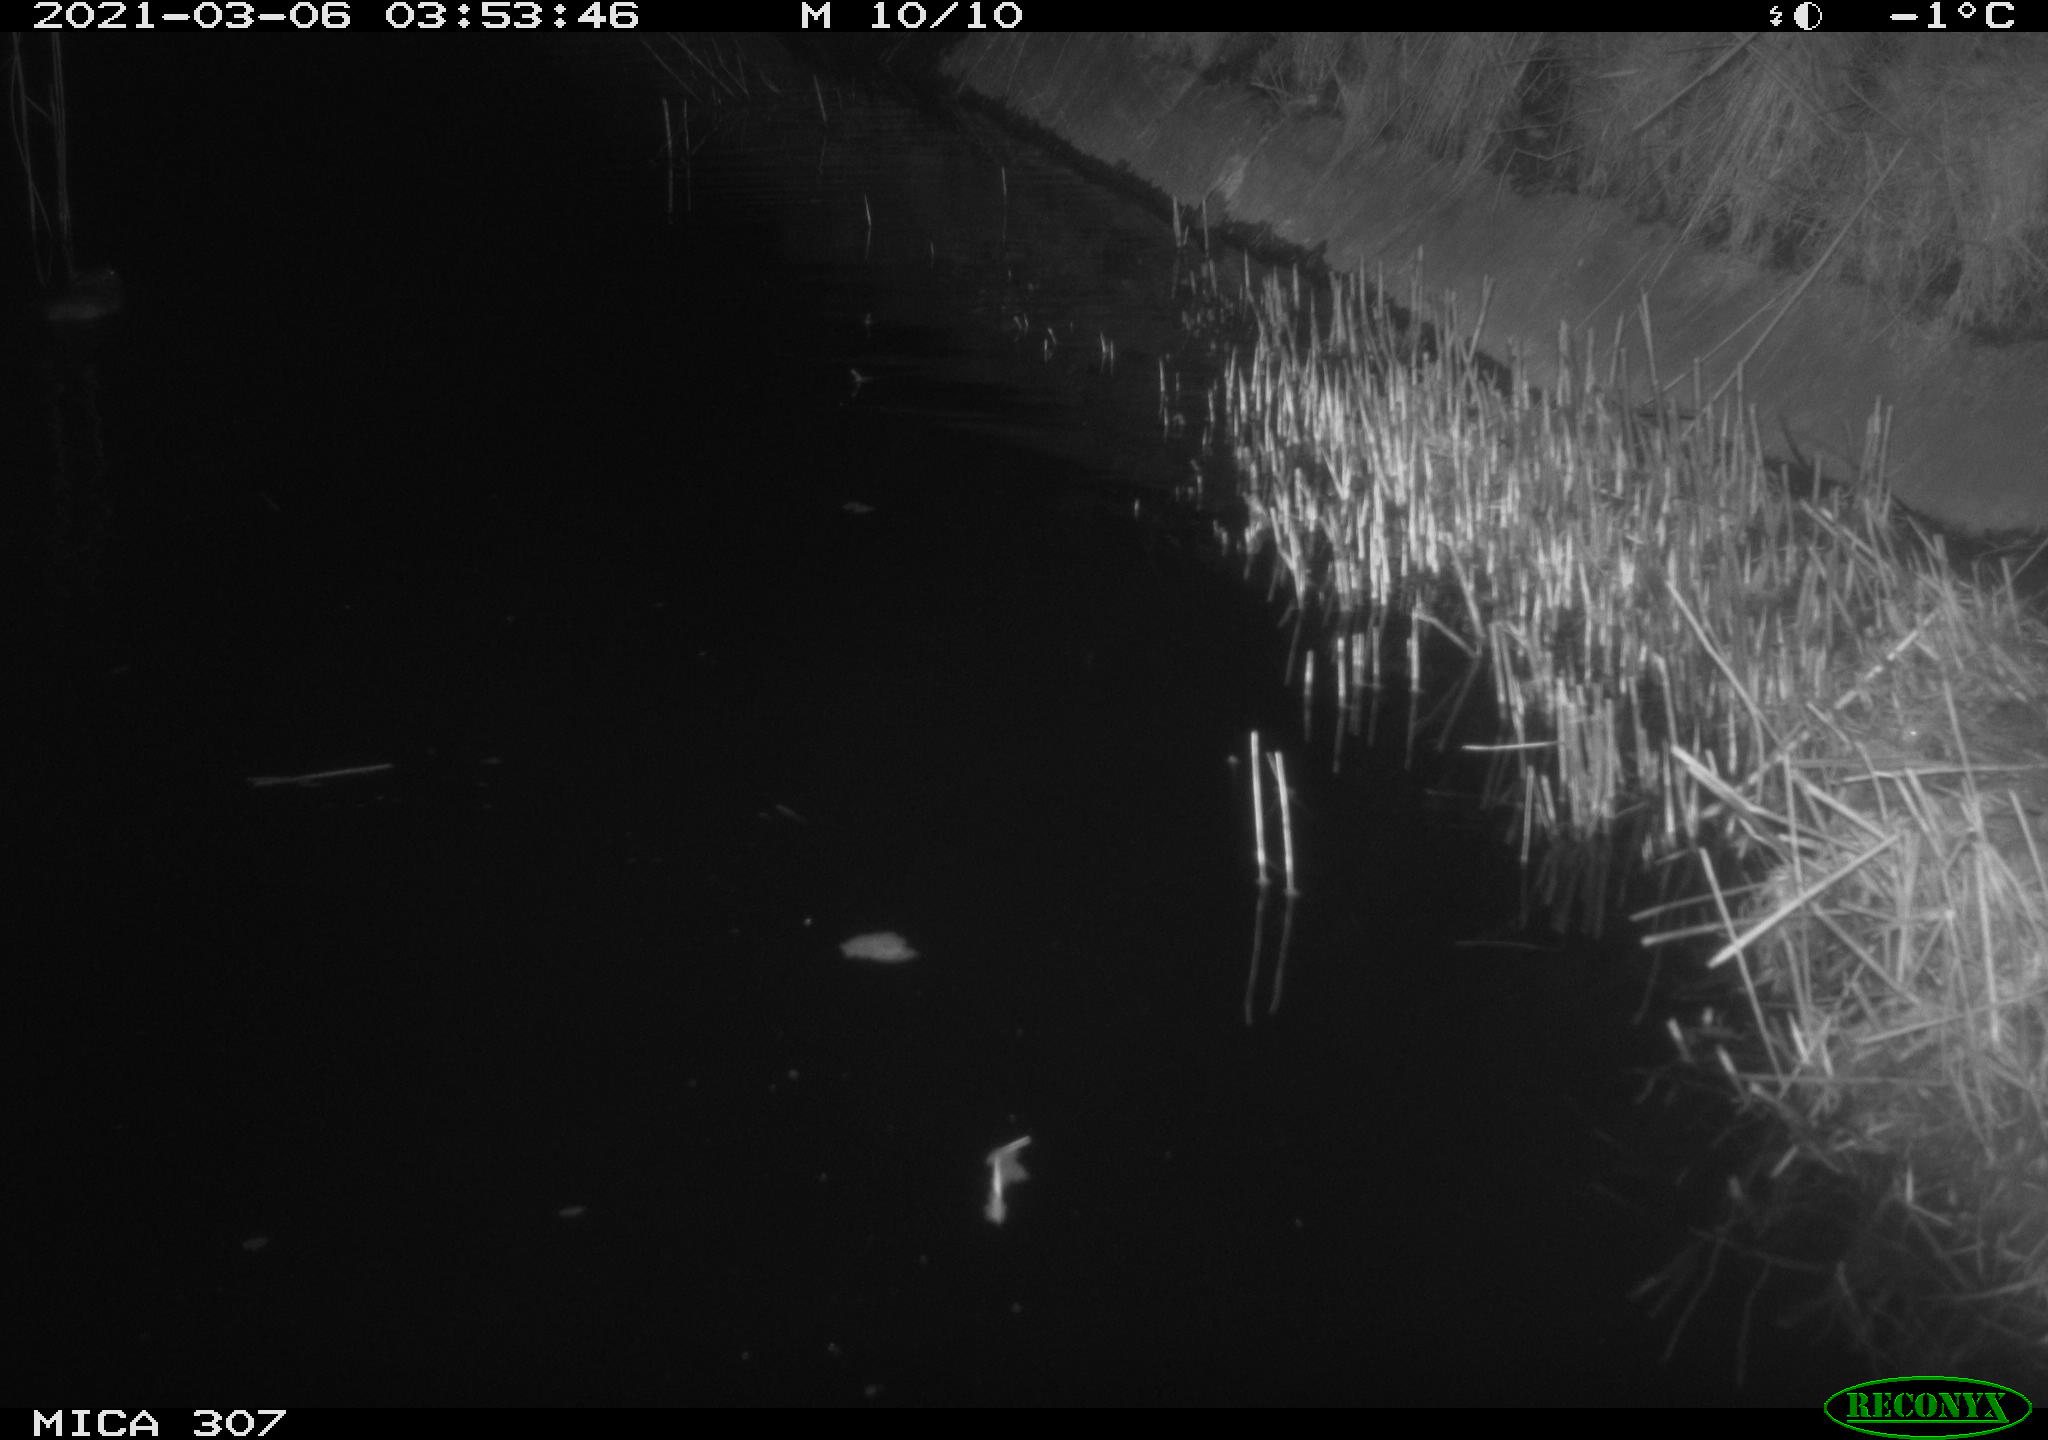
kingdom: Animalia
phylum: Chordata
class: Mammalia
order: Rodentia
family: Muridae
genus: Rattus
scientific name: Rattus norvegicus
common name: Brown rat
